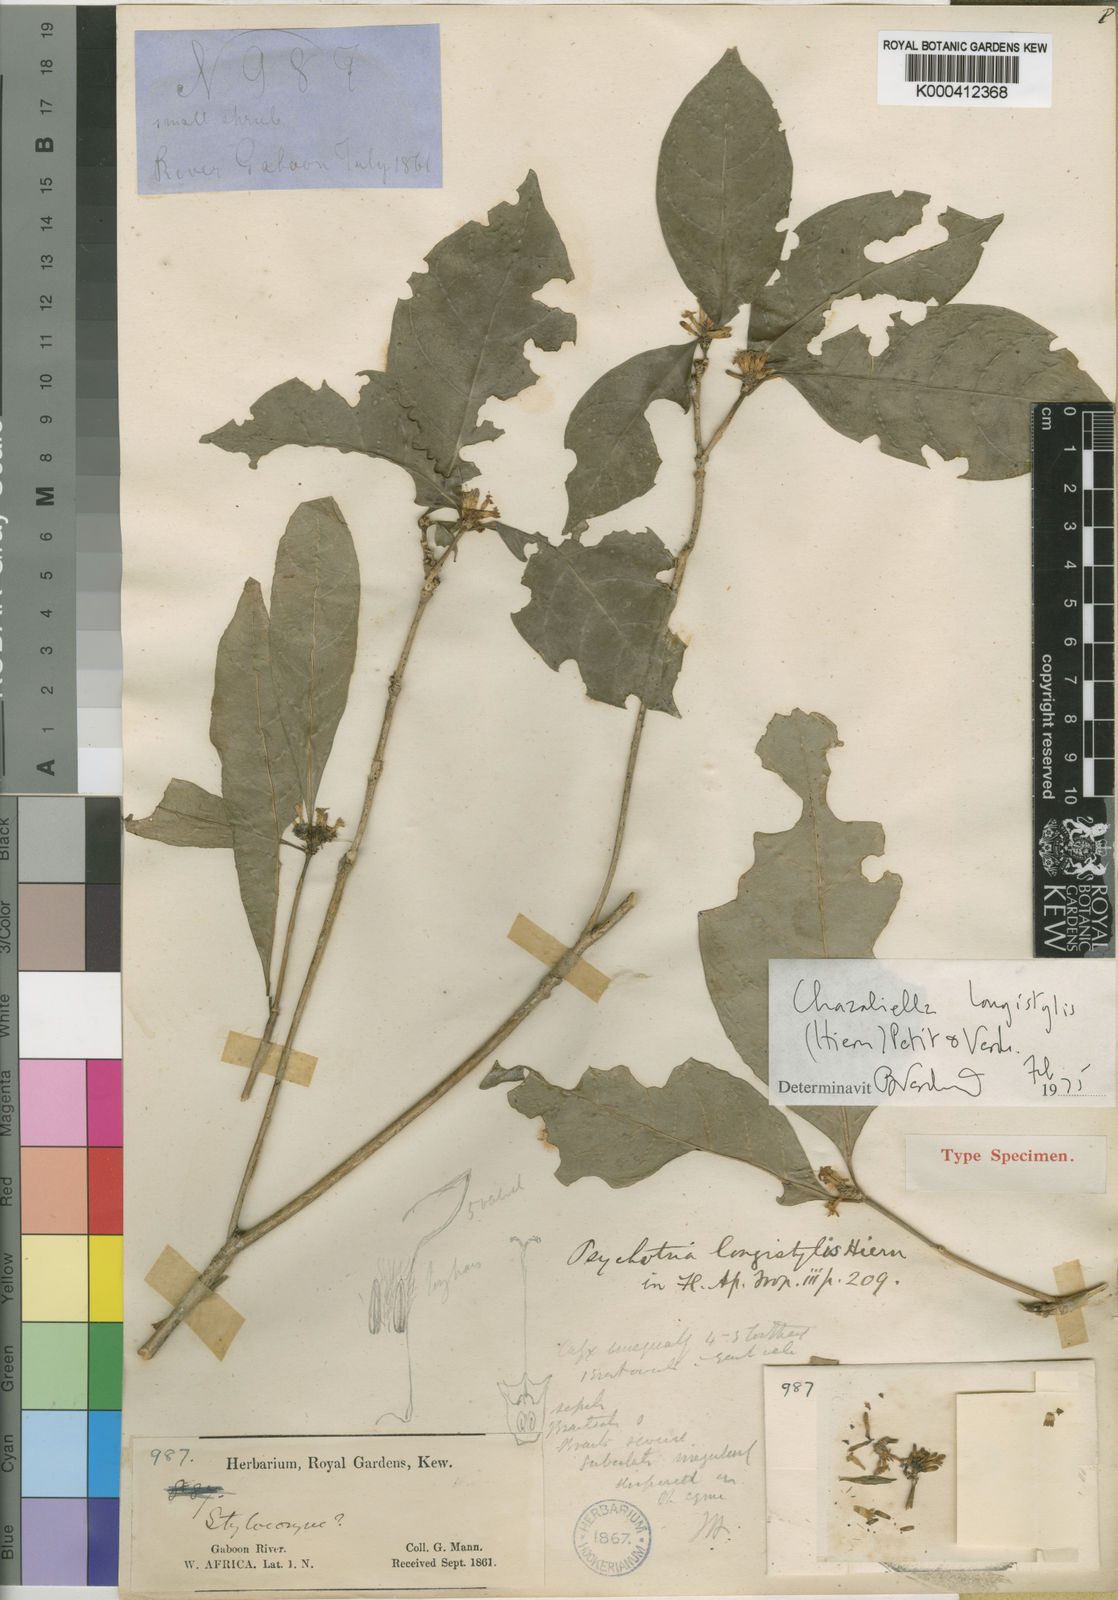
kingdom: Plantae
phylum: Tracheophyta
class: Magnoliopsida
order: Gentianales
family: Rubiaceae
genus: Eumachia
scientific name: Eumachia longistylis
